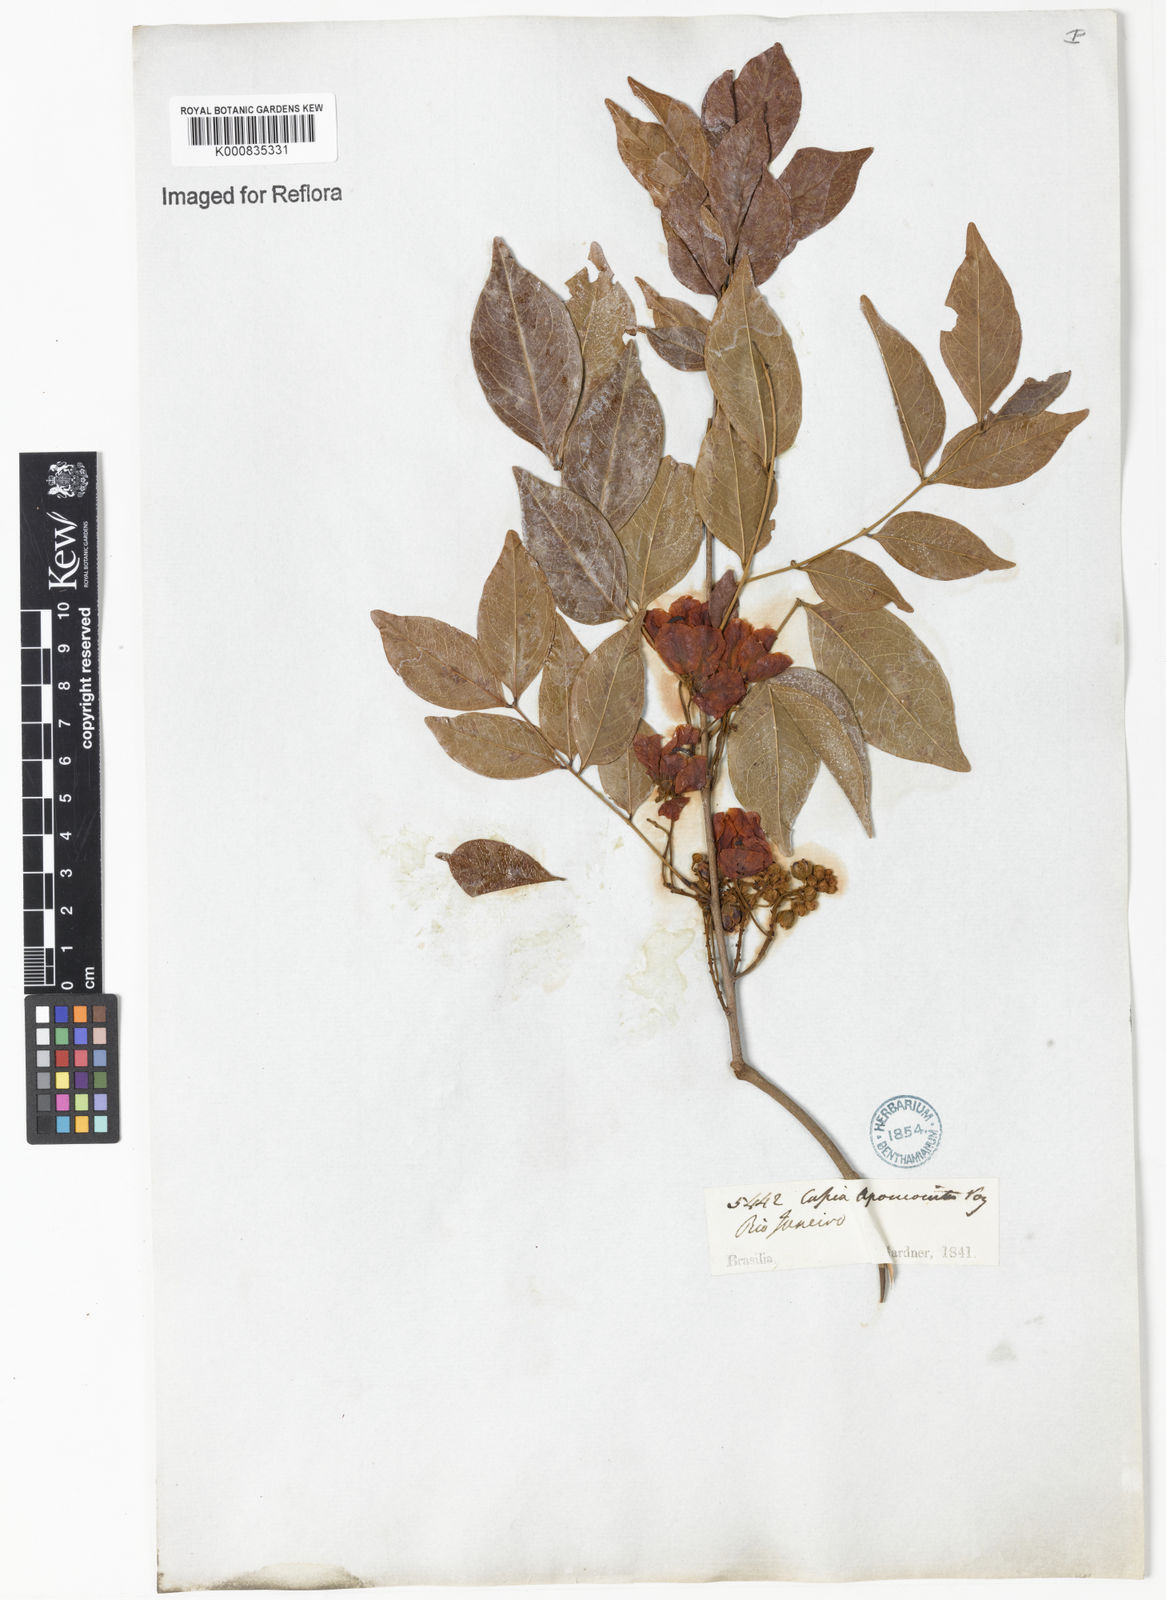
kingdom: Plantae
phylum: Tracheophyta
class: Magnoliopsida
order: Fabales
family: Fabaceae
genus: Chamaecrista
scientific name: Chamaecrista apoucouita
